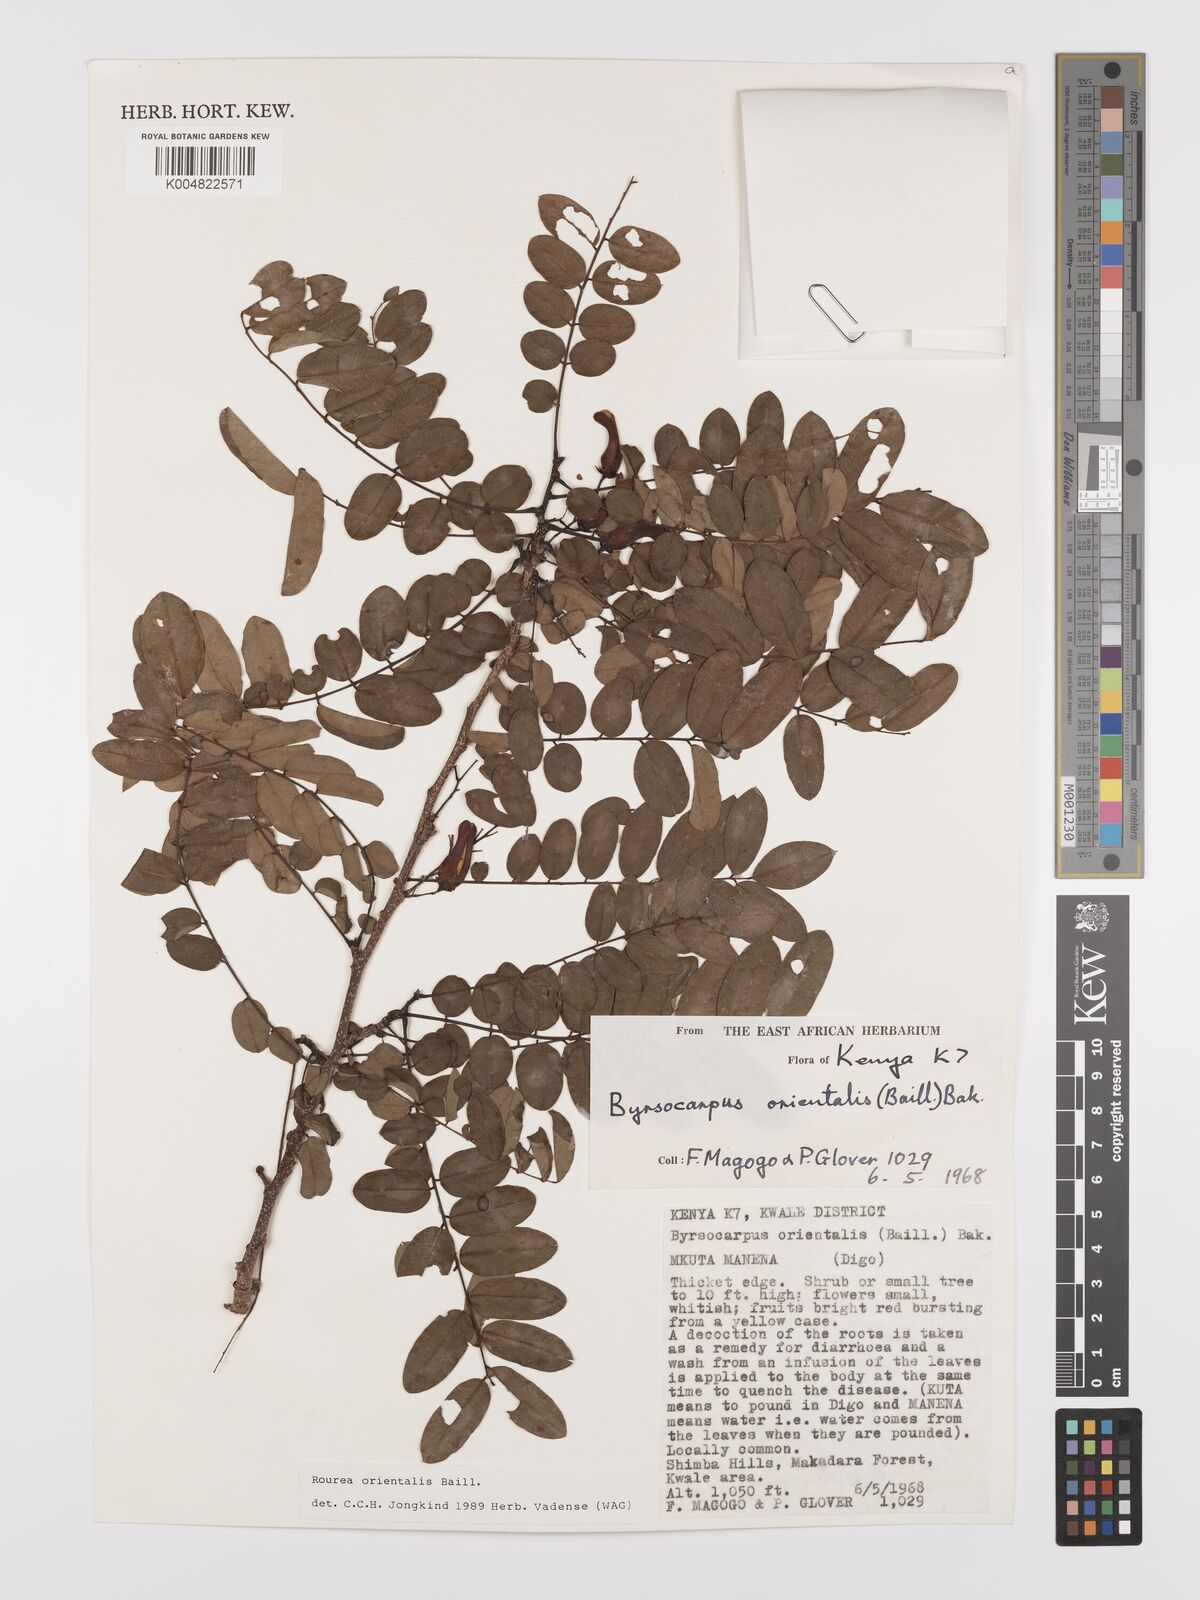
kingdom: Plantae
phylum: Tracheophyta
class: Magnoliopsida
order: Oxalidales
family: Connaraceae
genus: Rourea
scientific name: Rourea orientalis
